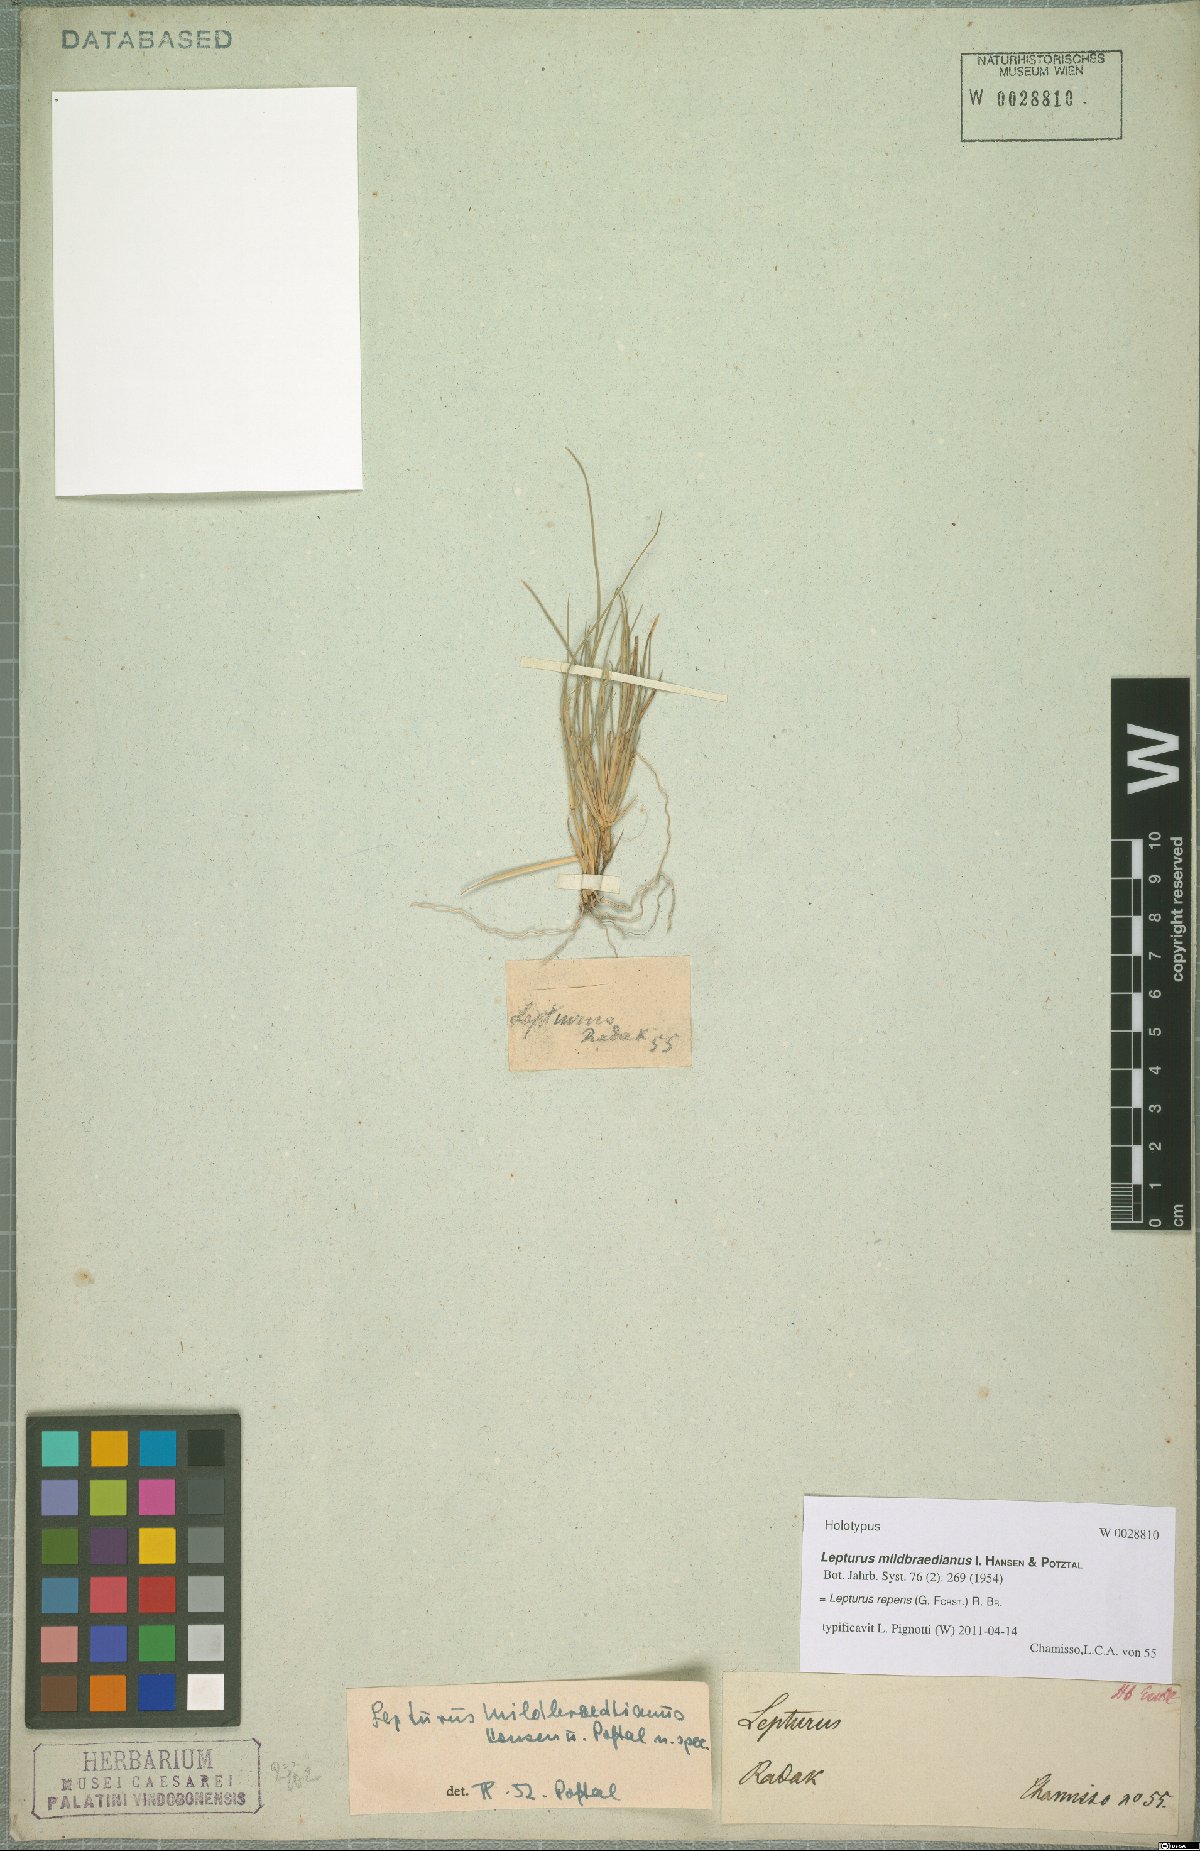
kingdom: Plantae
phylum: Tracheophyta
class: Liliopsida
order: Poales
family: Poaceae
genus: Lepturus
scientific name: Lepturus repens
